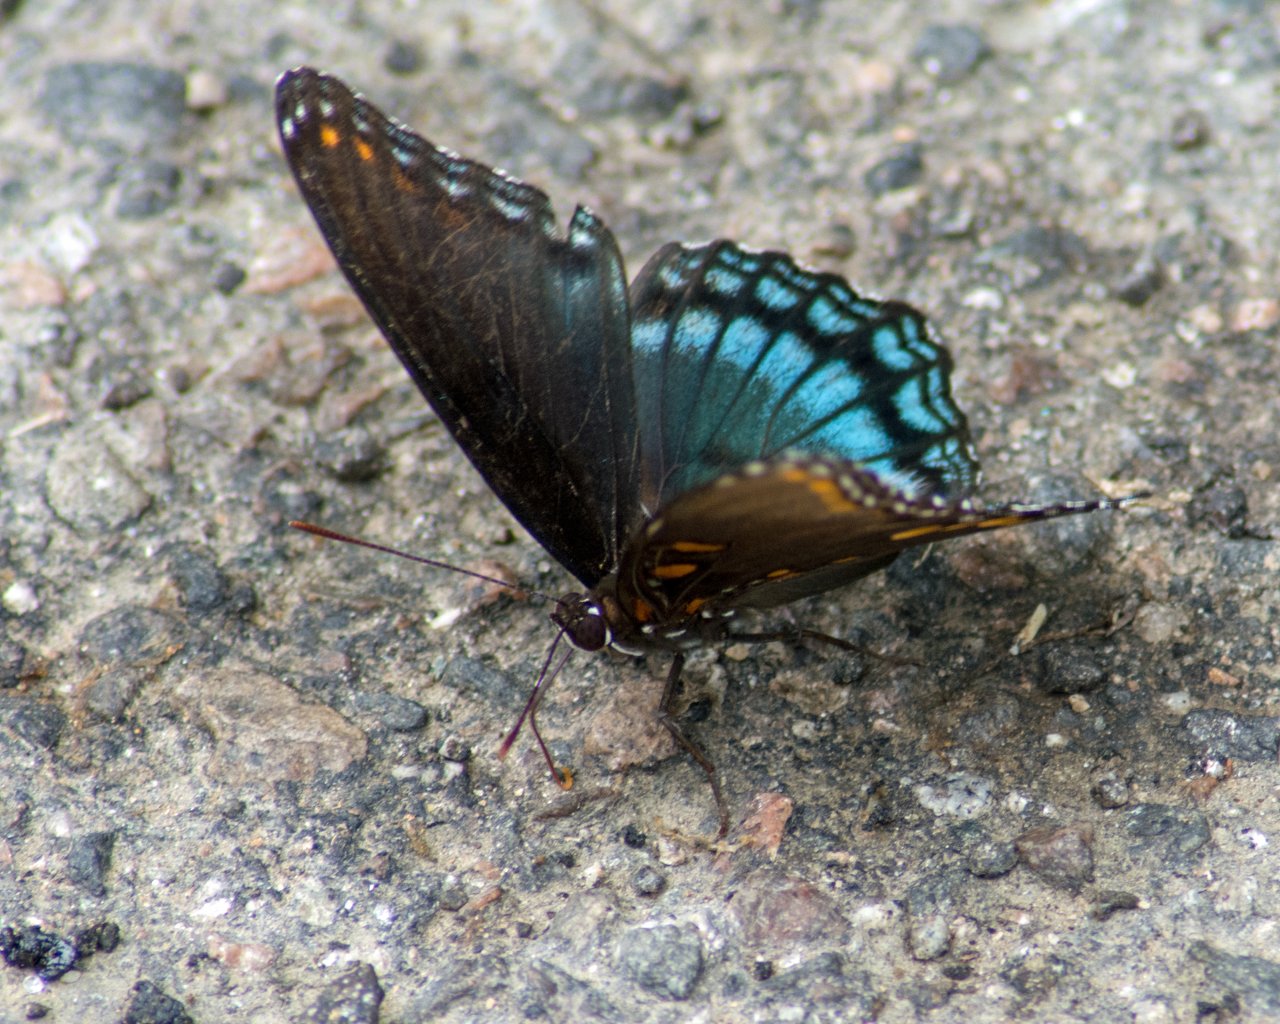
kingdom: Animalia
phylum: Arthropoda
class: Insecta
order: Lepidoptera
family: Nymphalidae
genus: Limenitis
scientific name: Limenitis astyanax
